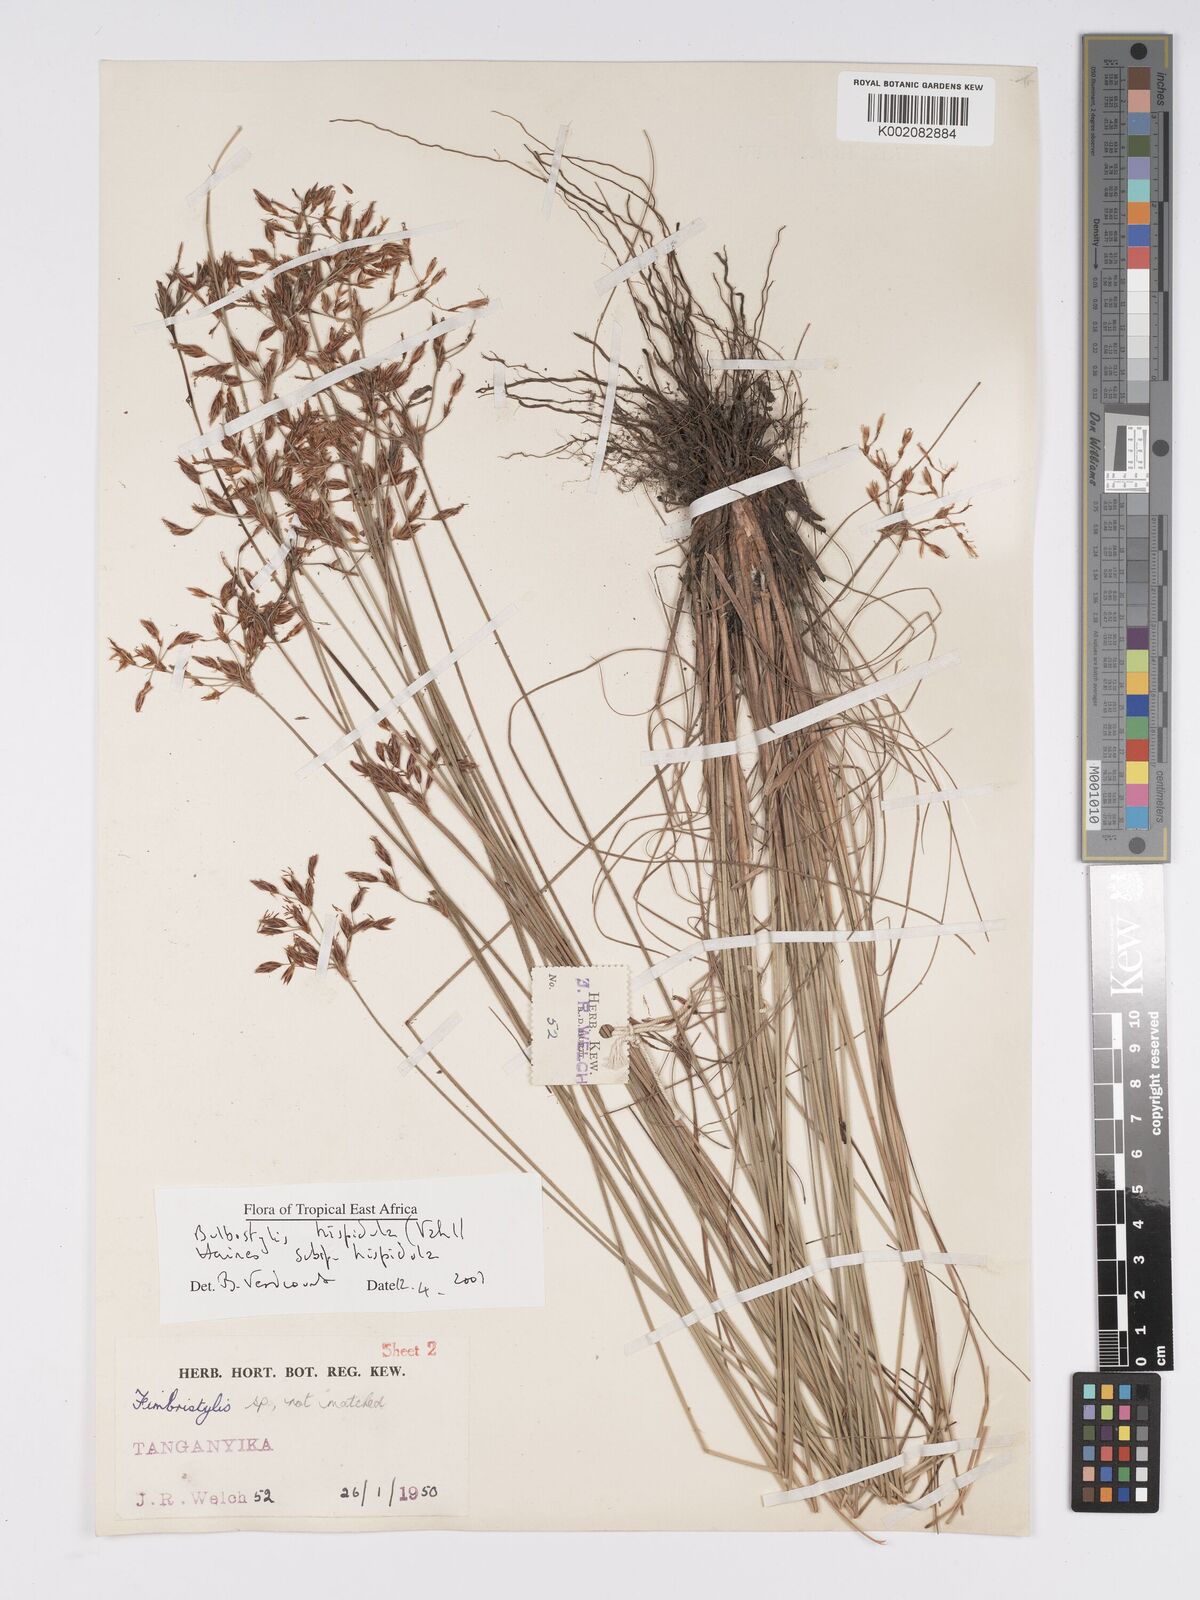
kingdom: Plantae
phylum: Tracheophyta
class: Liliopsida
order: Poales
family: Cyperaceae
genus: Bulbostylis
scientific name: Bulbostylis hispidula
